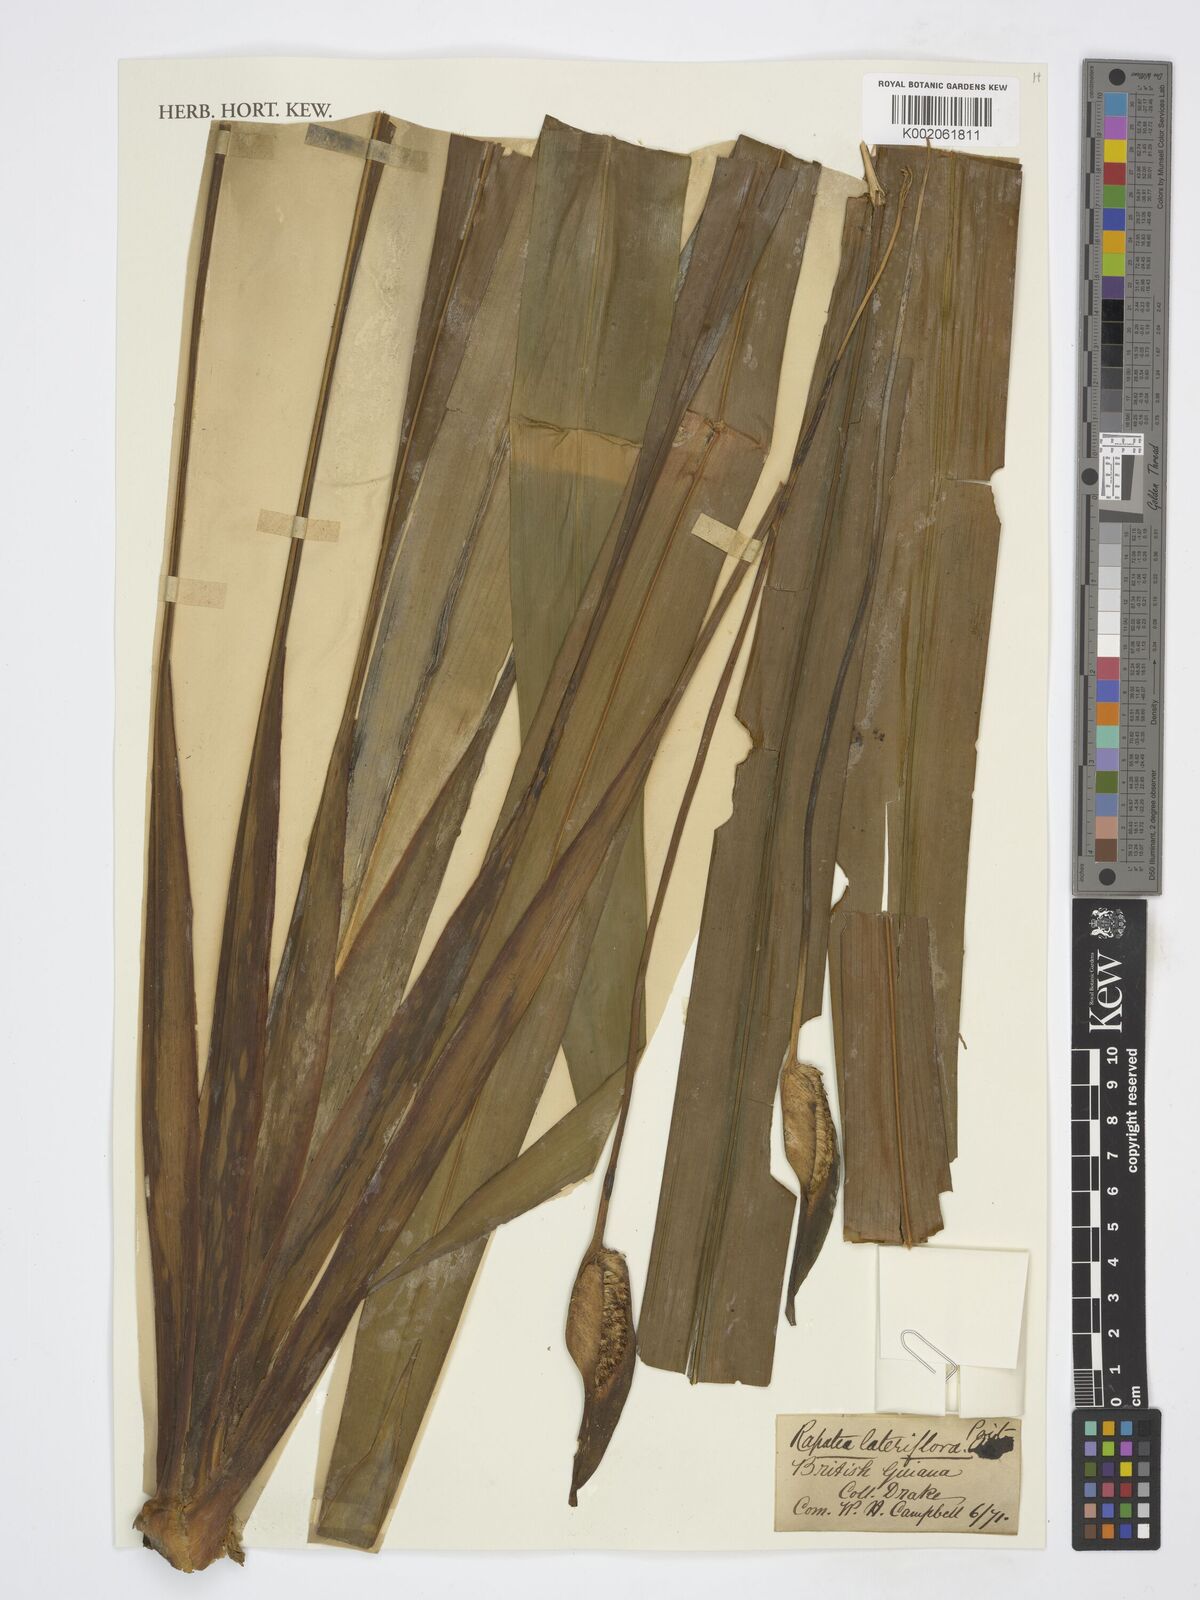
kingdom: Plantae
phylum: Tracheophyta
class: Liliopsida
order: Poales
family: Rapateaceae
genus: Rapatea
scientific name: Rapatea
